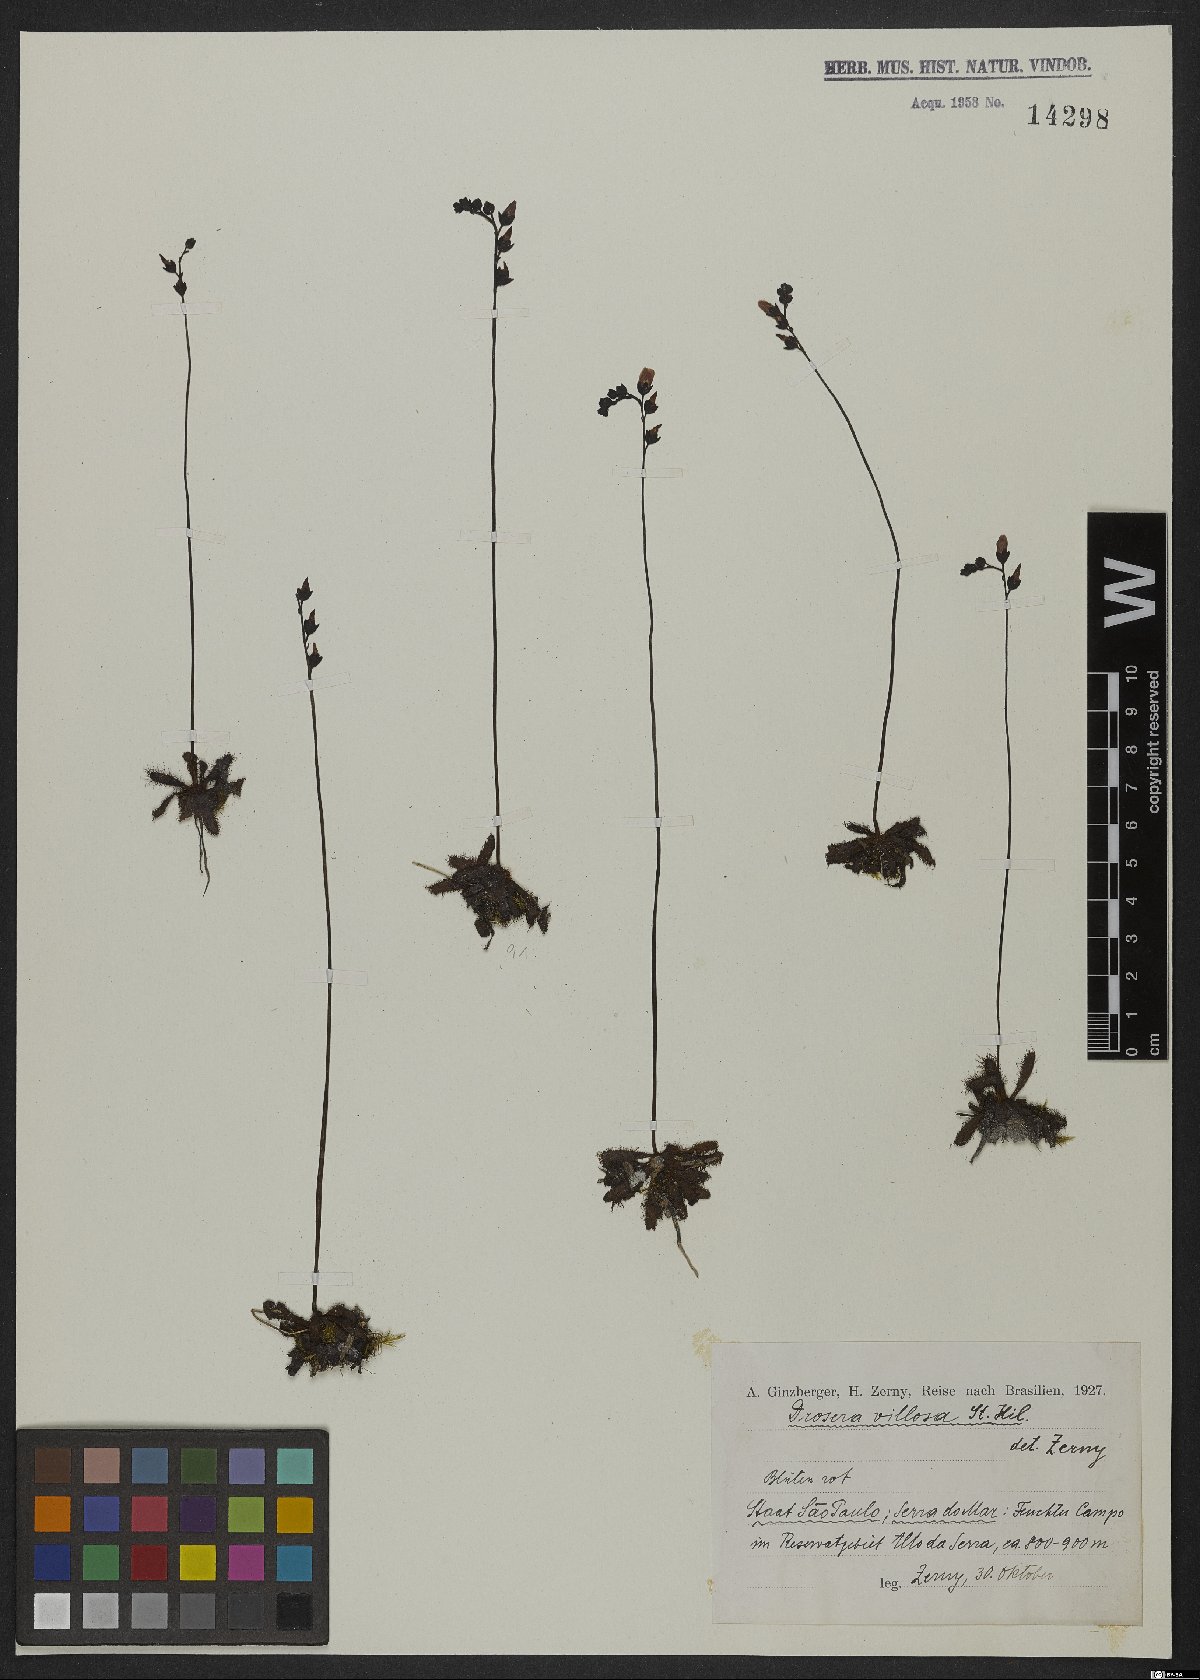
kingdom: Plantae
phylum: Tracheophyta
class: Magnoliopsida
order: Caryophyllales
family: Droseraceae
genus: Drosera
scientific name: Drosera latifolia
